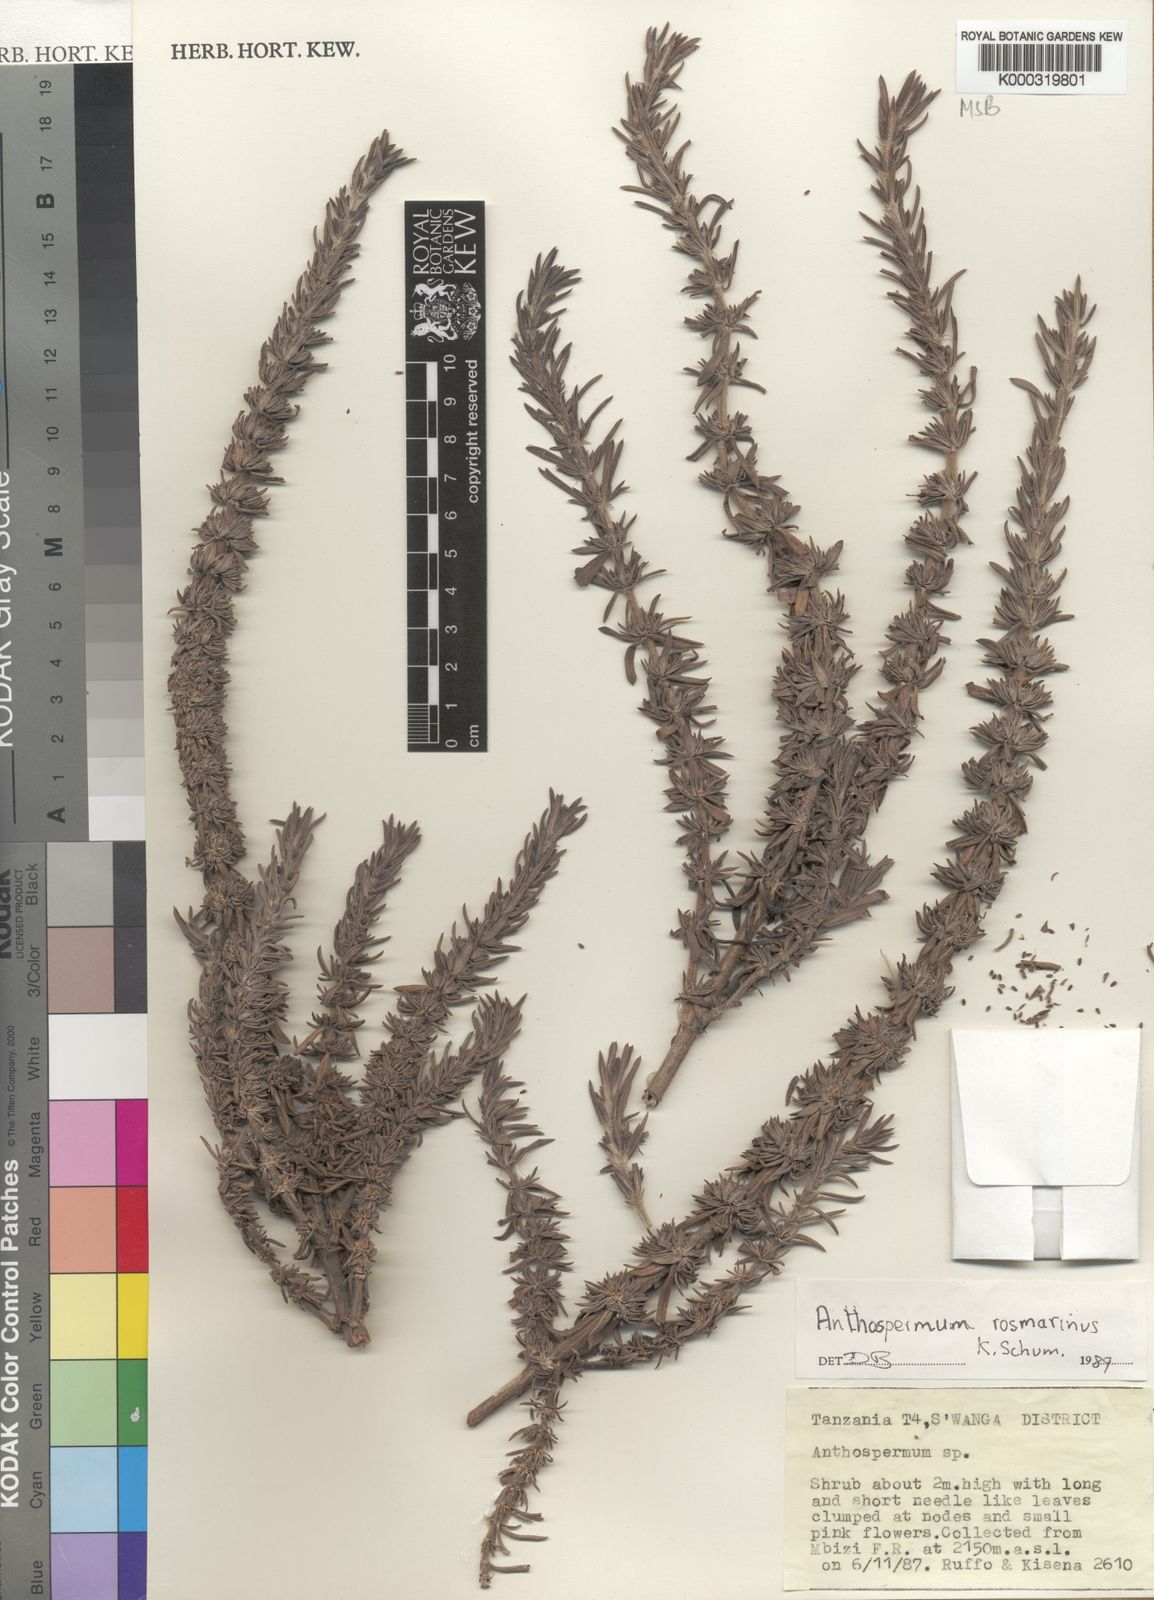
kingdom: Plantae
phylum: Tracheophyta
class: Magnoliopsida
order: Gentianales
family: Rubiaceae
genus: Anthospermum
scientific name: Anthospermum rosmarinus
